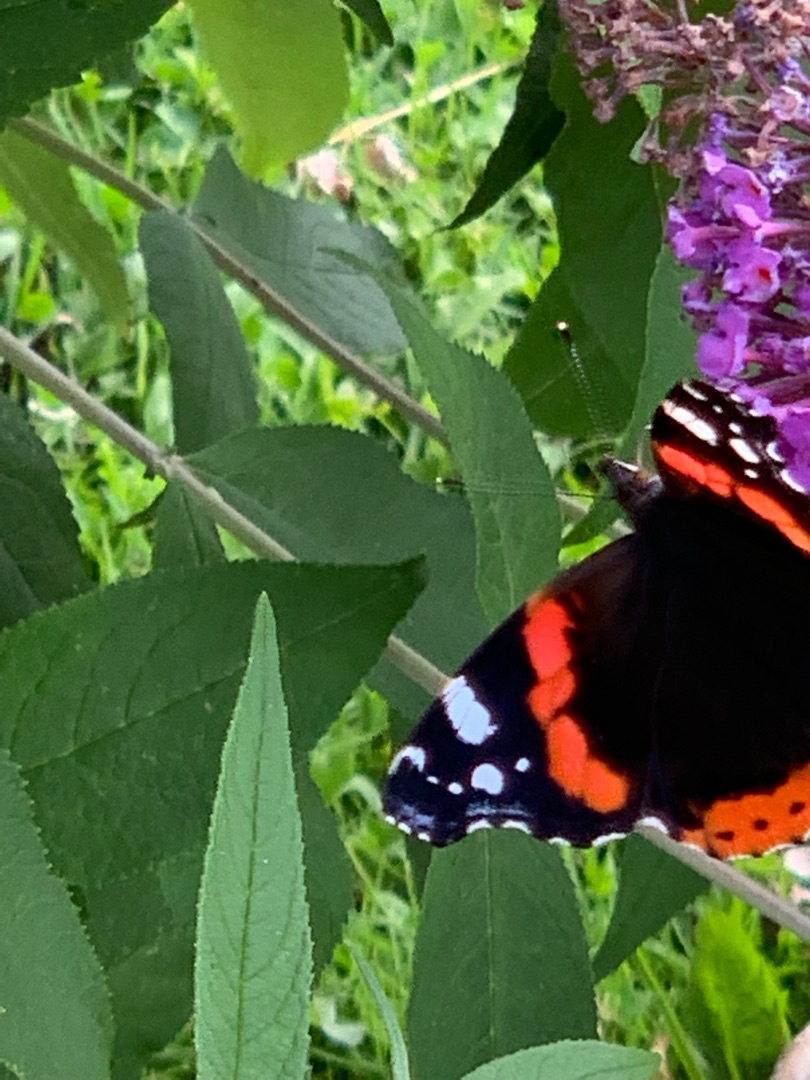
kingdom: Animalia
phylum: Arthropoda
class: Insecta
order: Lepidoptera
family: Nymphalidae
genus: Vanessa
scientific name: Vanessa atalanta
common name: Admiral
